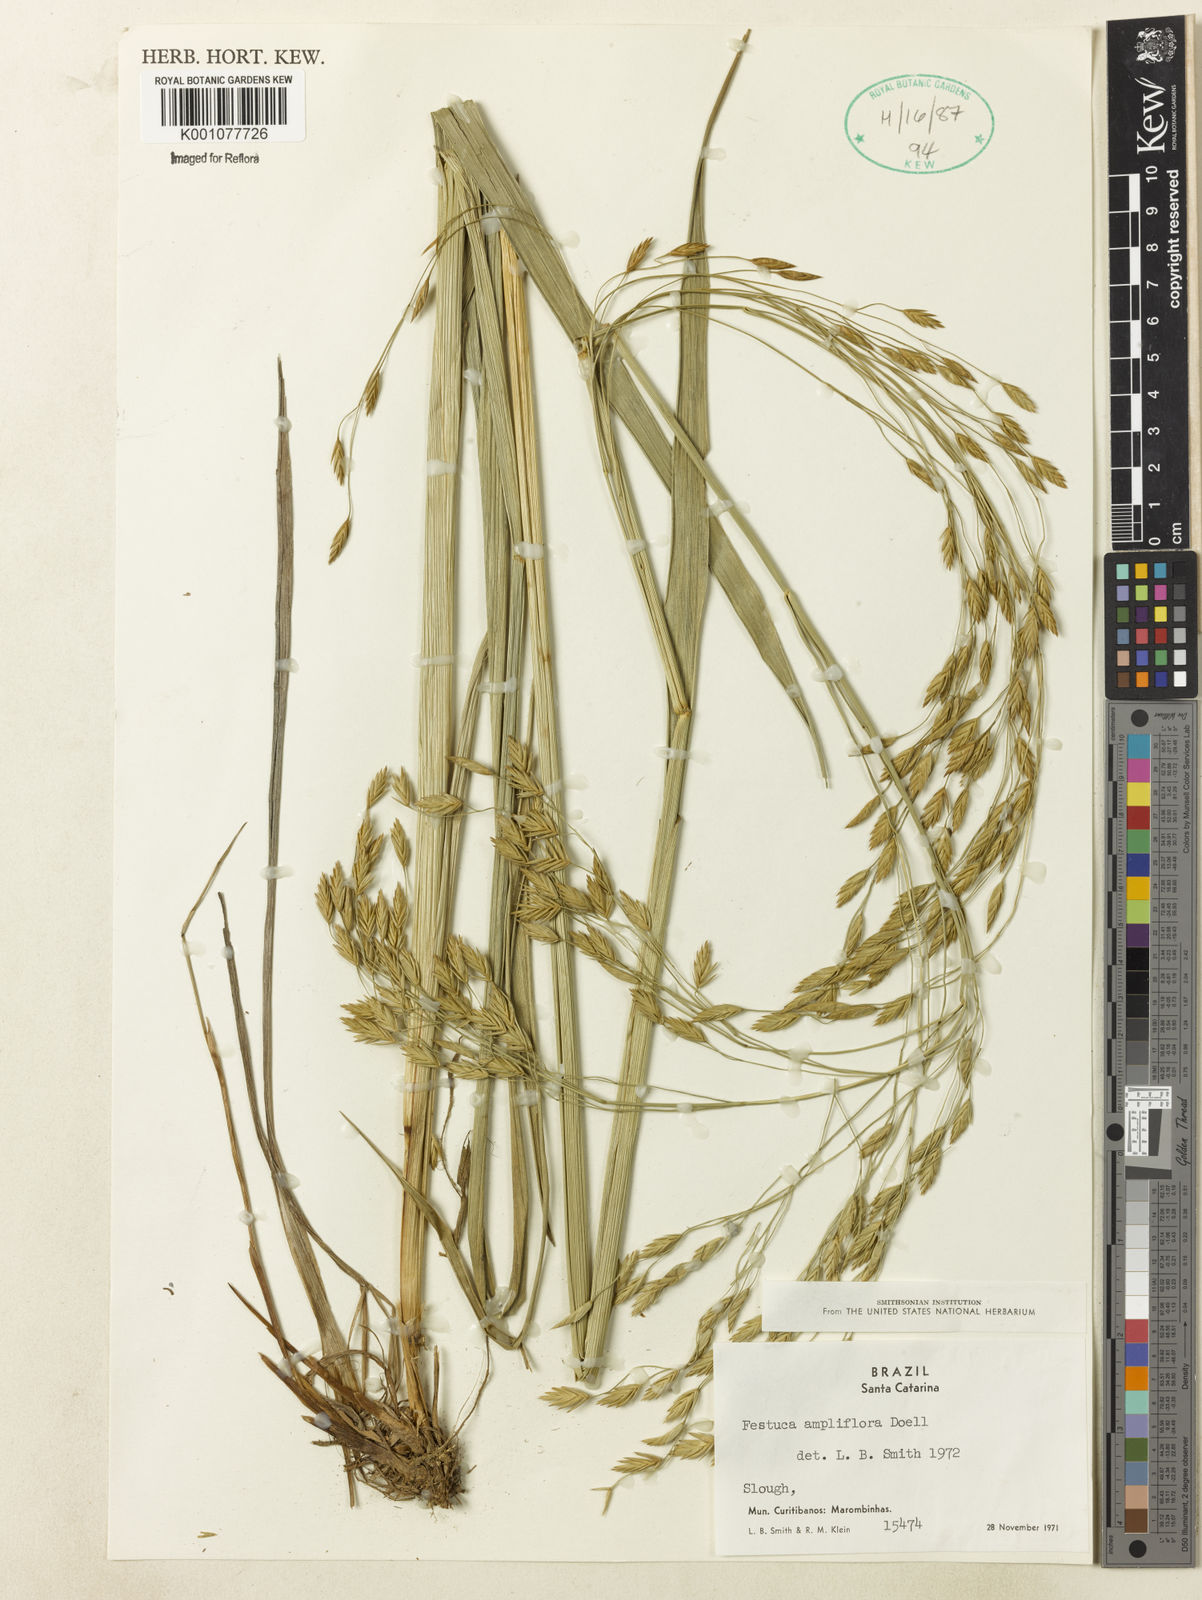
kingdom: Plantae
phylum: Tracheophyta
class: Liliopsida
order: Poales
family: Poaceae
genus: Festuca
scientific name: Festuca fimbriata
